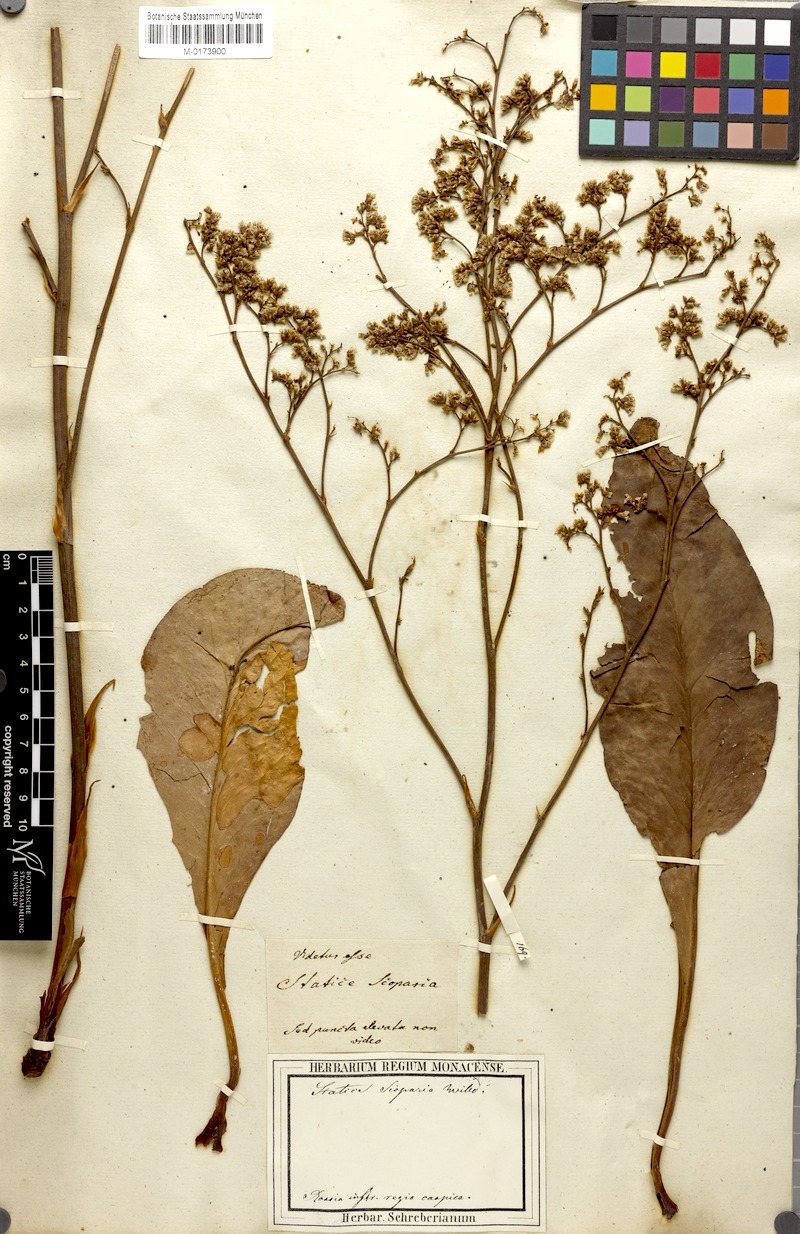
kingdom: Plantae
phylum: Tracheophyta
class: Magnoliopsida
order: Caryophyllales
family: Plumbaginaceae
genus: Limonium
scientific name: Limonium gmelini
